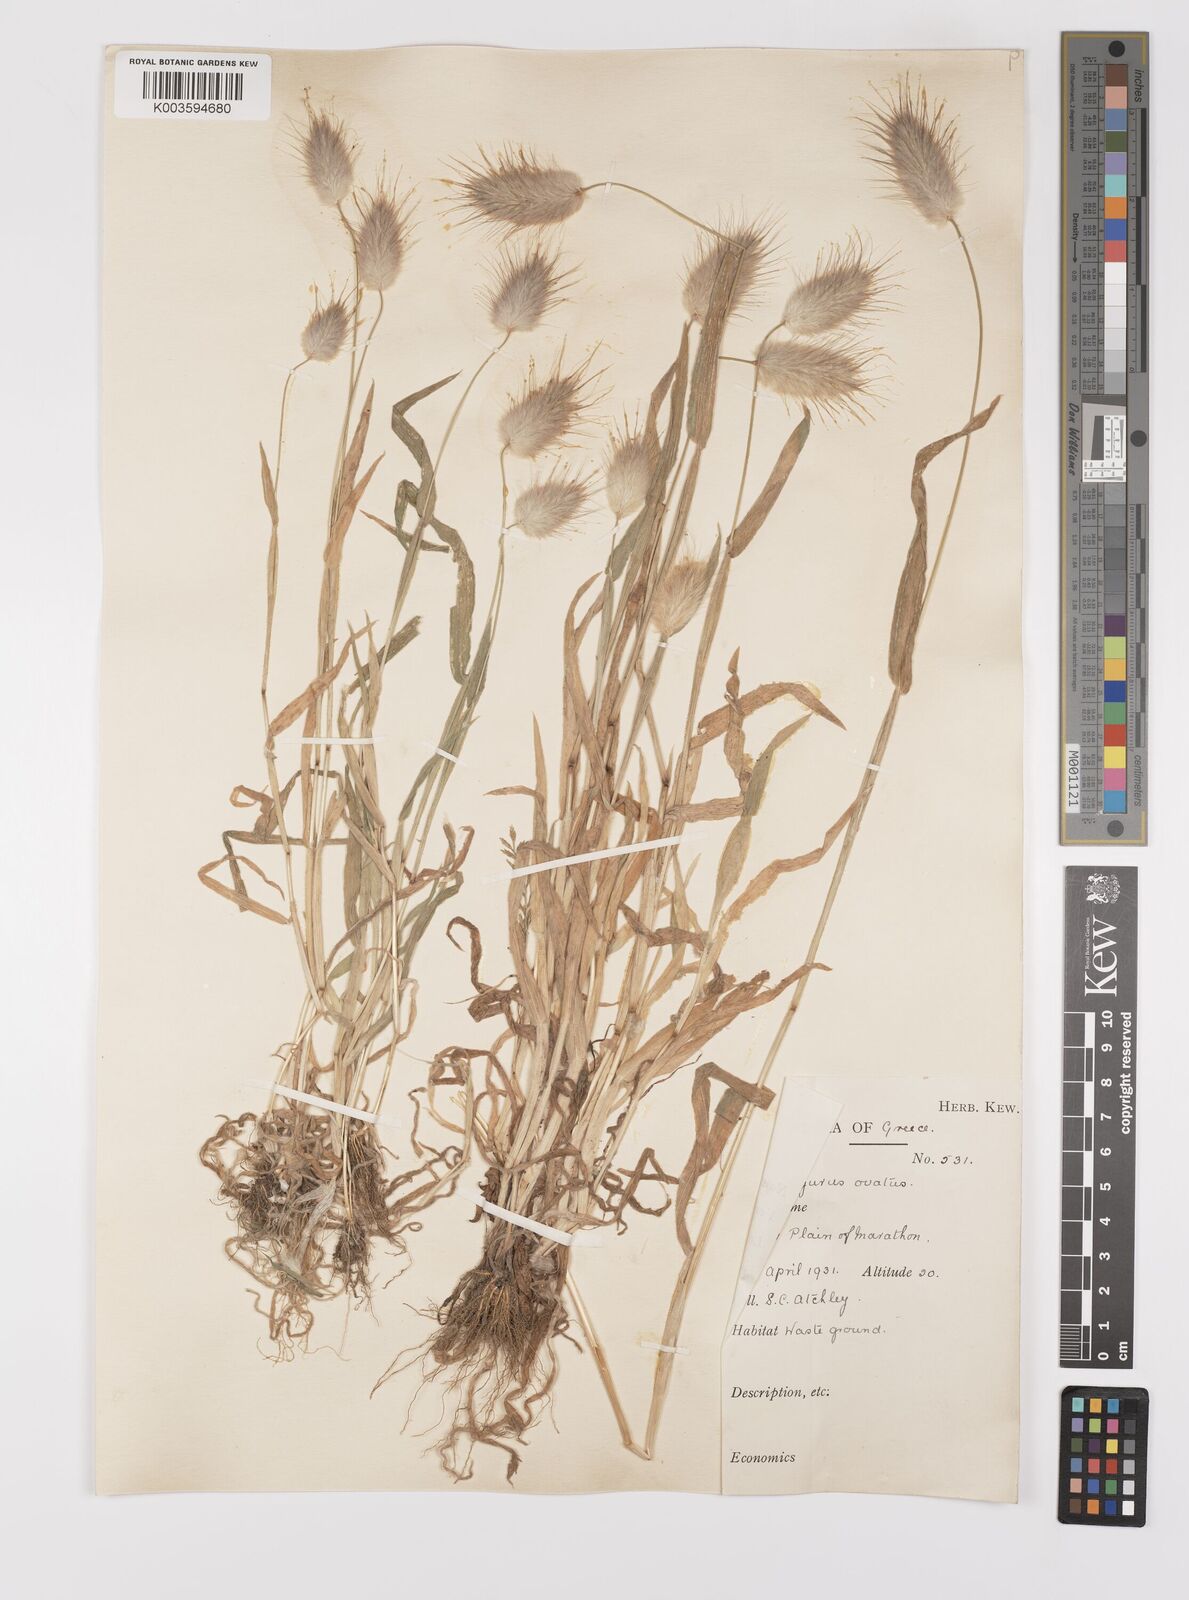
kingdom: Plantae
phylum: Tracheophyta
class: Liliopsida
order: Poales
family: Poaceae
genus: Lagurus
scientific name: Lagurus ovatus
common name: Hare's-tail
